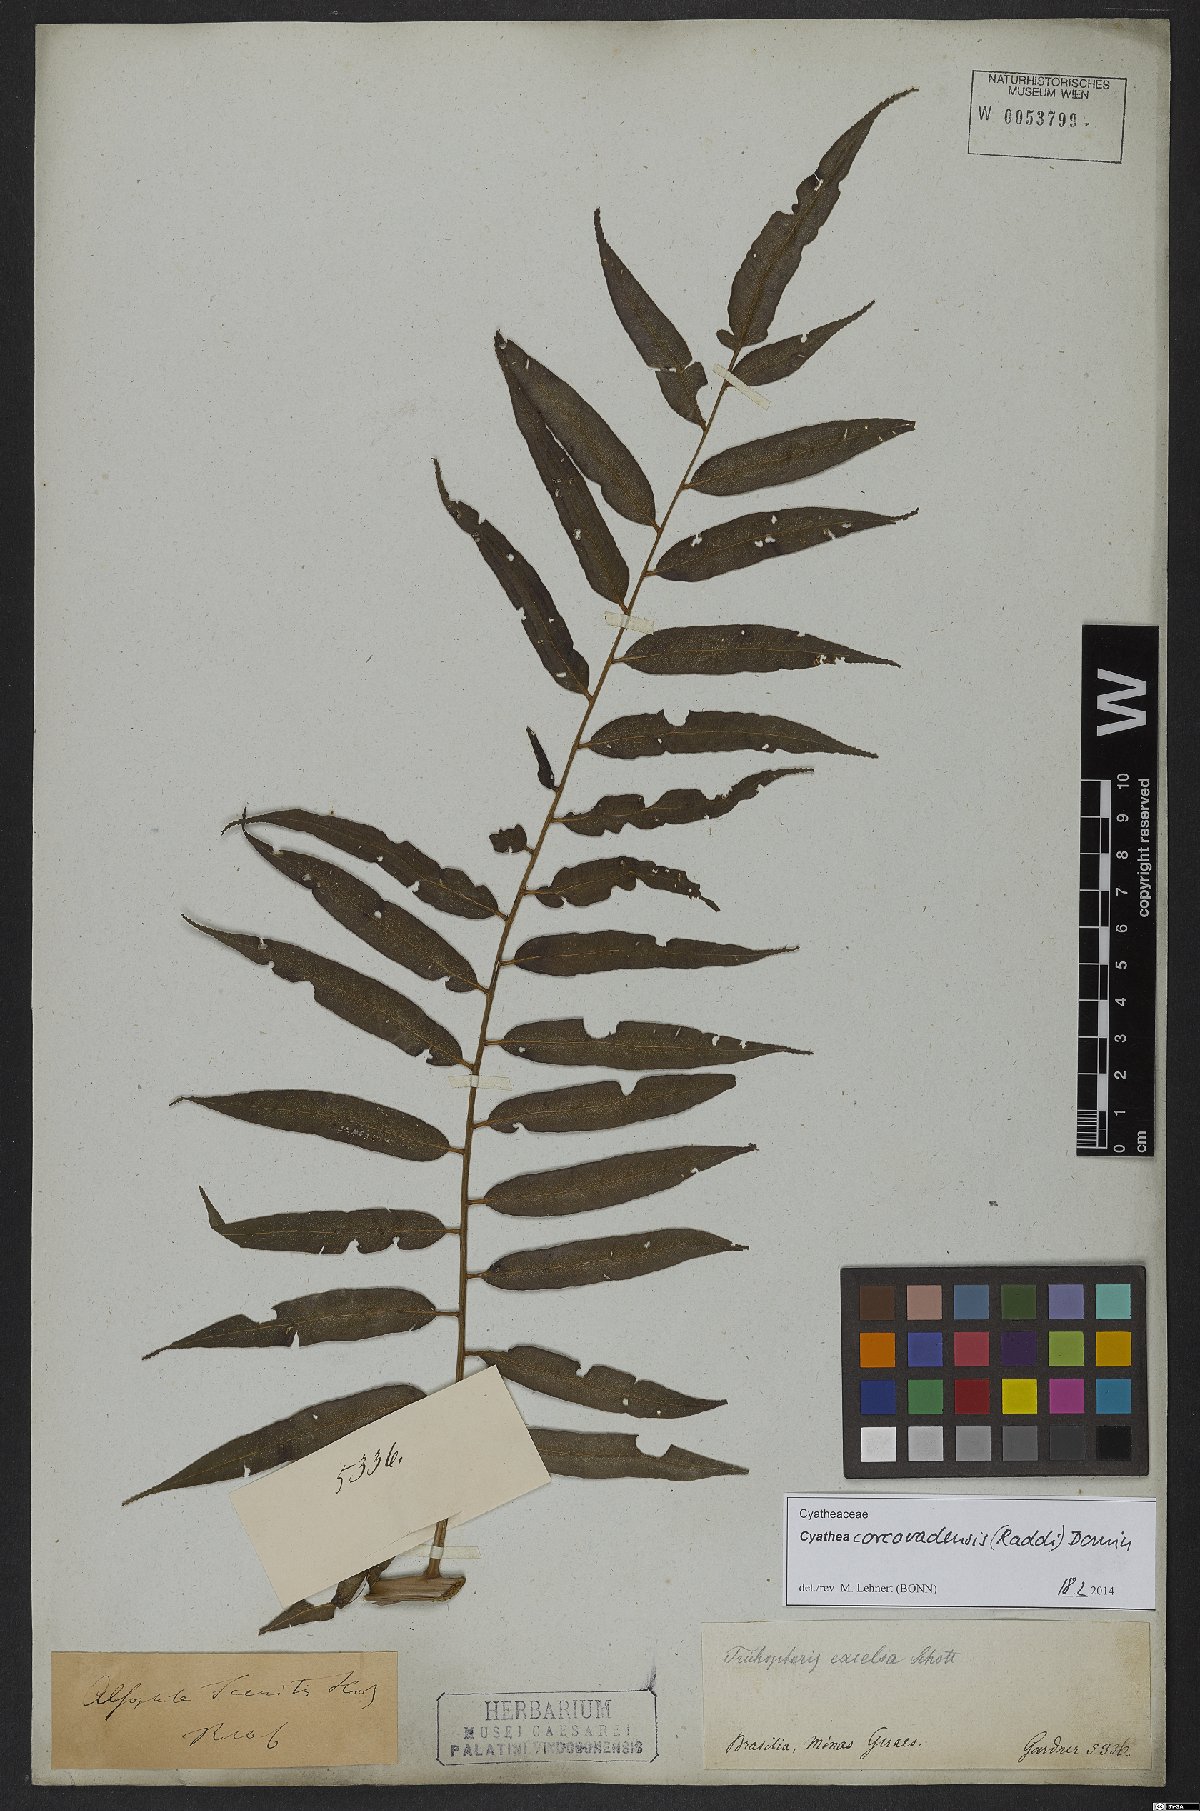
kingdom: Plantae
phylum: Tracheophyta
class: Polypodiopsida
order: Cyatheales
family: Cyatheaceae
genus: Cyathea
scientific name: Cyathea corcovadensis
